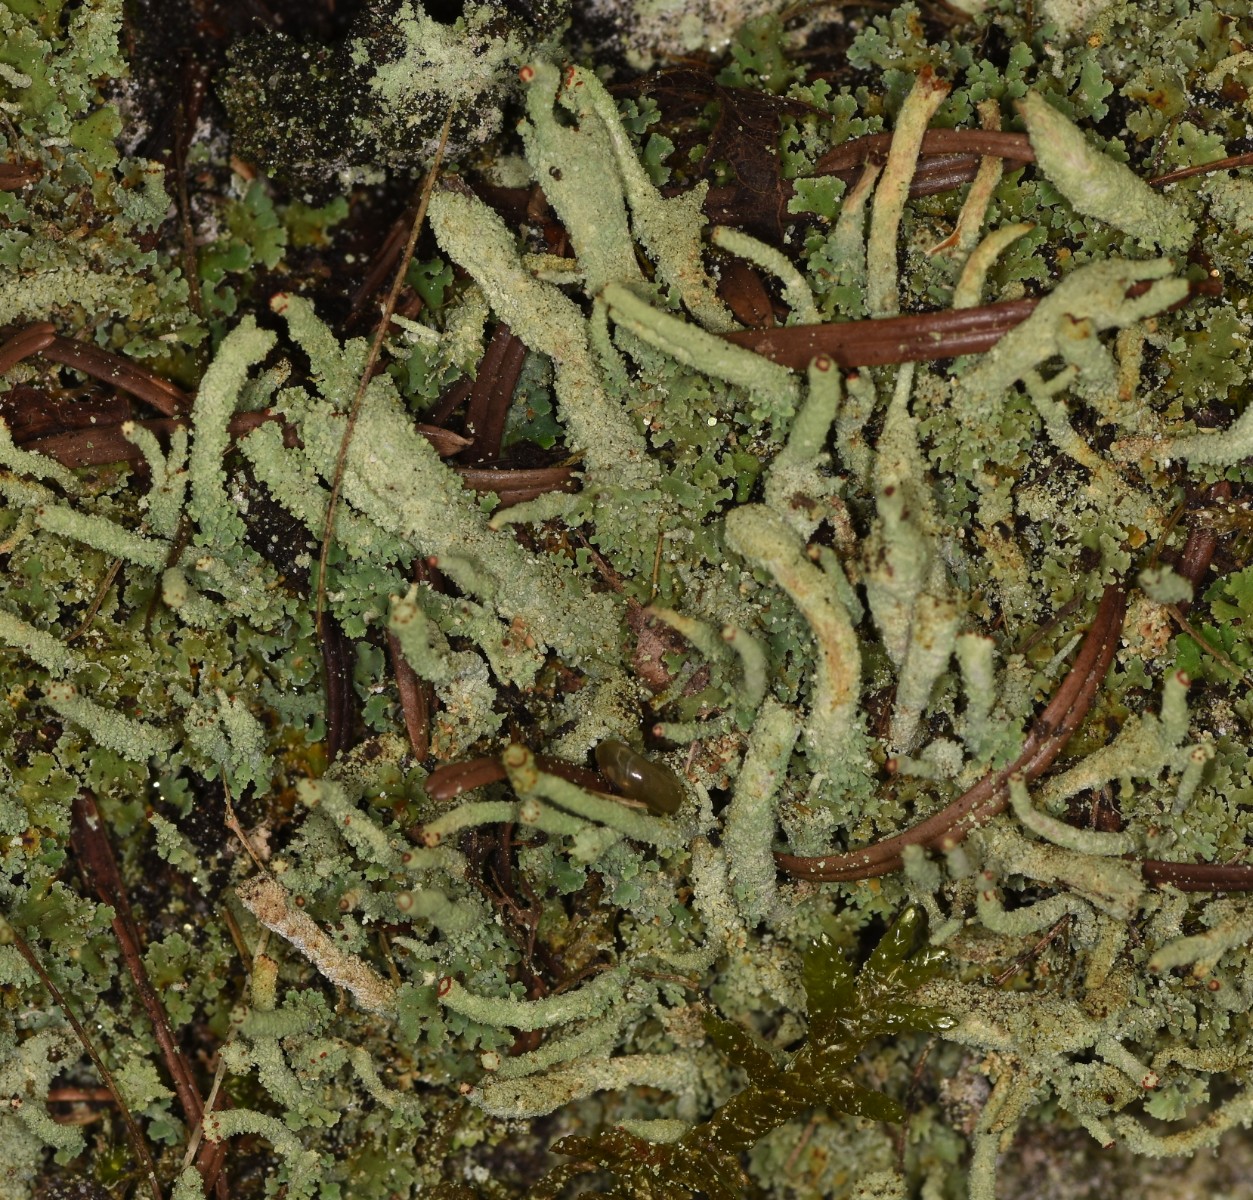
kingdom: Fungi
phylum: Ascomycota
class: Lecanoromycetes
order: Lecanorales
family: Cladoniaceae
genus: Cladonia
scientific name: Cladonia polydactyla
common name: vifte-bægerlav
